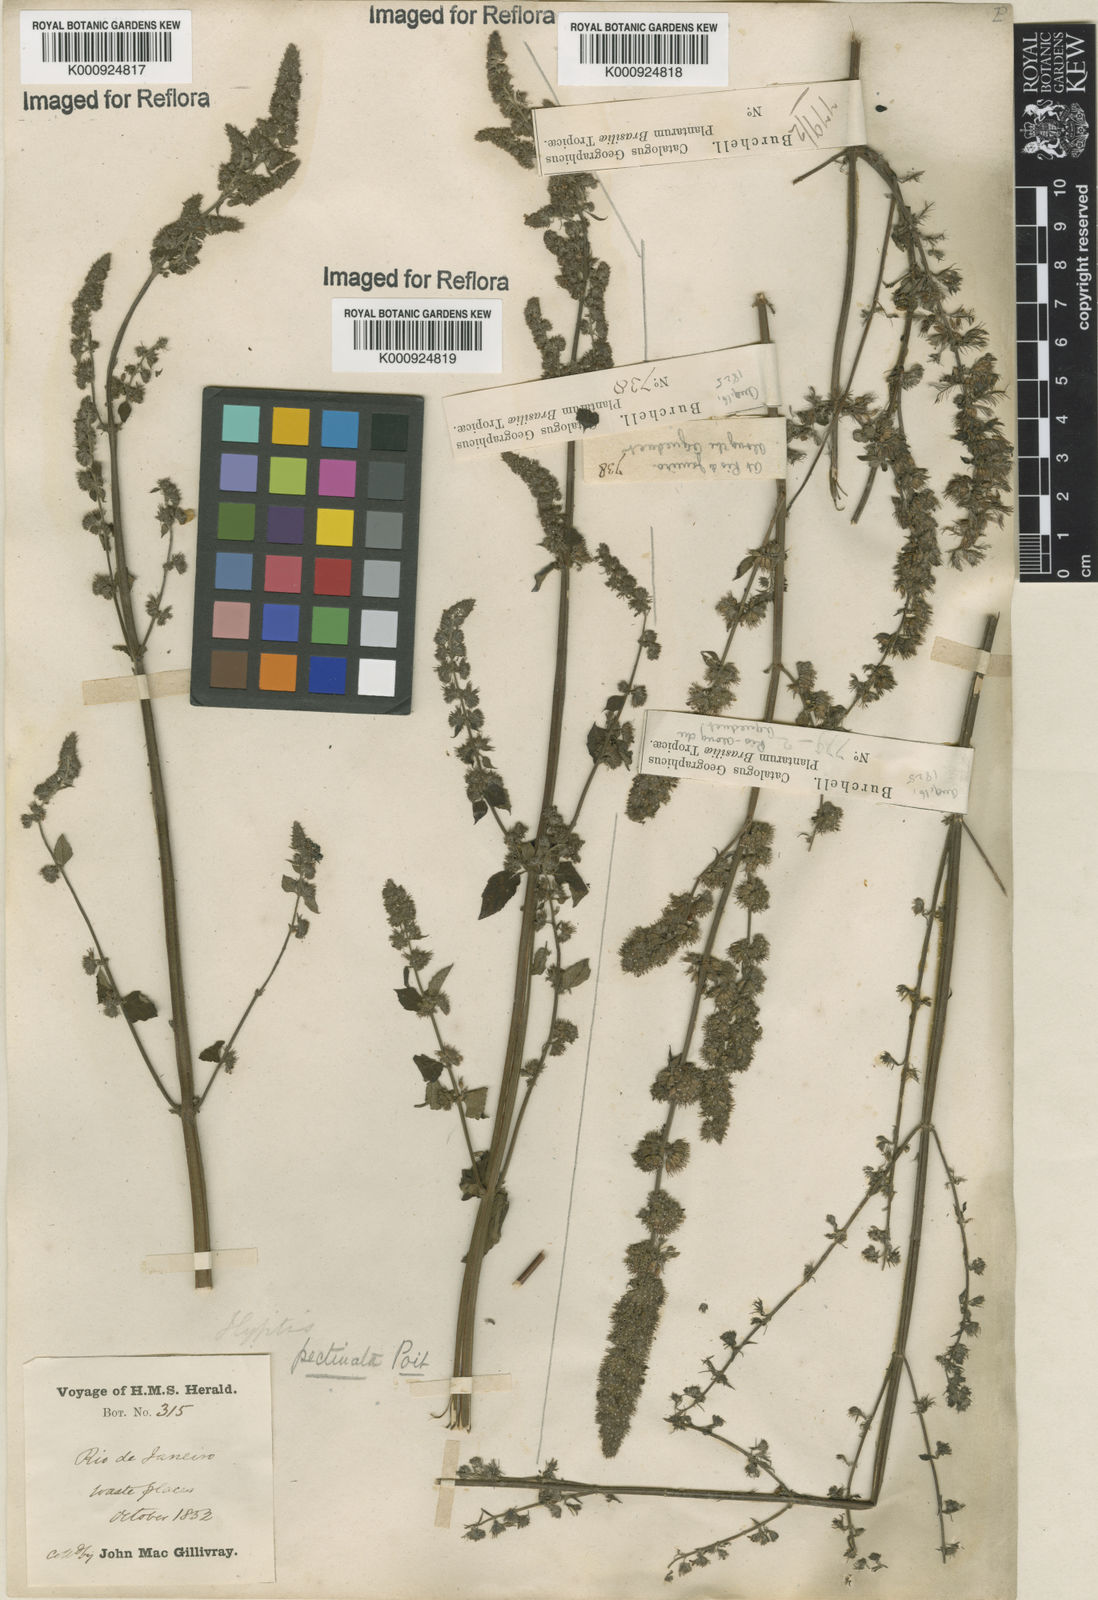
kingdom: Plantae
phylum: Tracheophyta
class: Magnoliopsida
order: Lamiales
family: Lamiaceae
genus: Mesosphaerum
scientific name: Mesosphaerum pectinatum
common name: Comb hyptis
